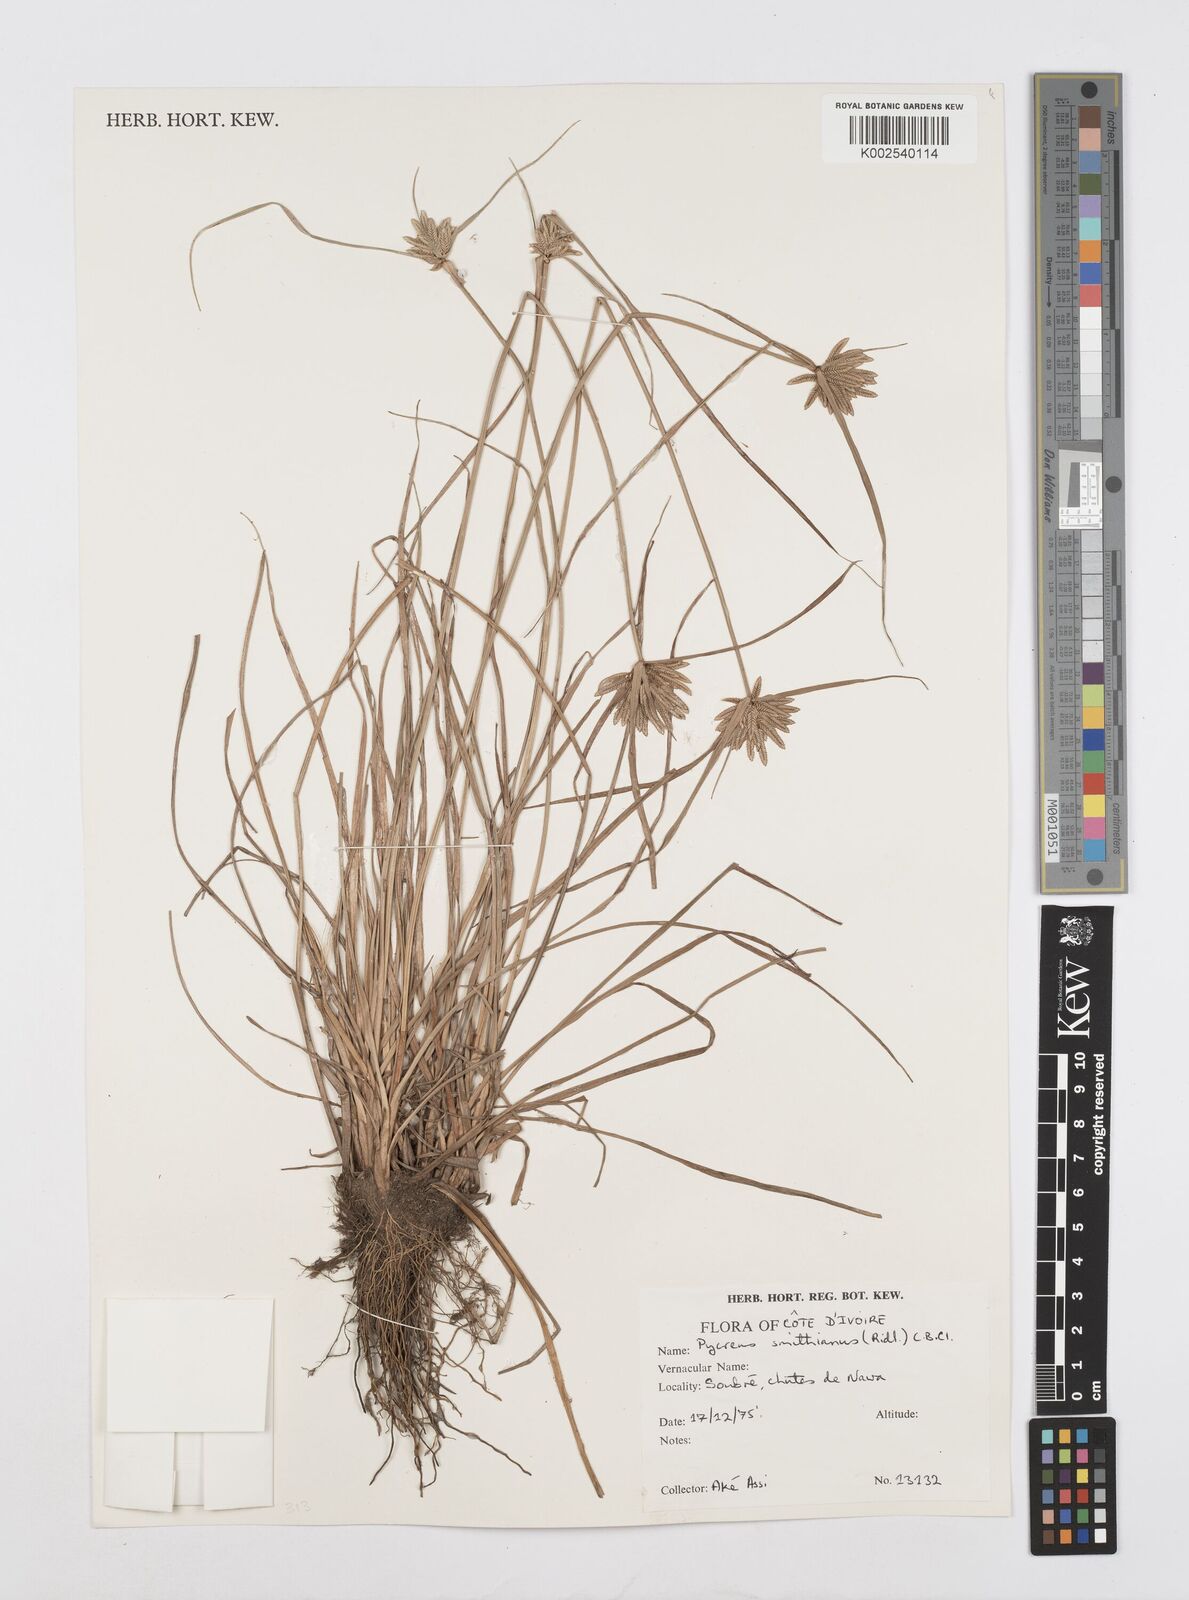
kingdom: Plantae
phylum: Tracheophyta
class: Liliopsida
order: Poales
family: Cyperaceae
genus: Cyperus
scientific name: Cyperus smithianus
